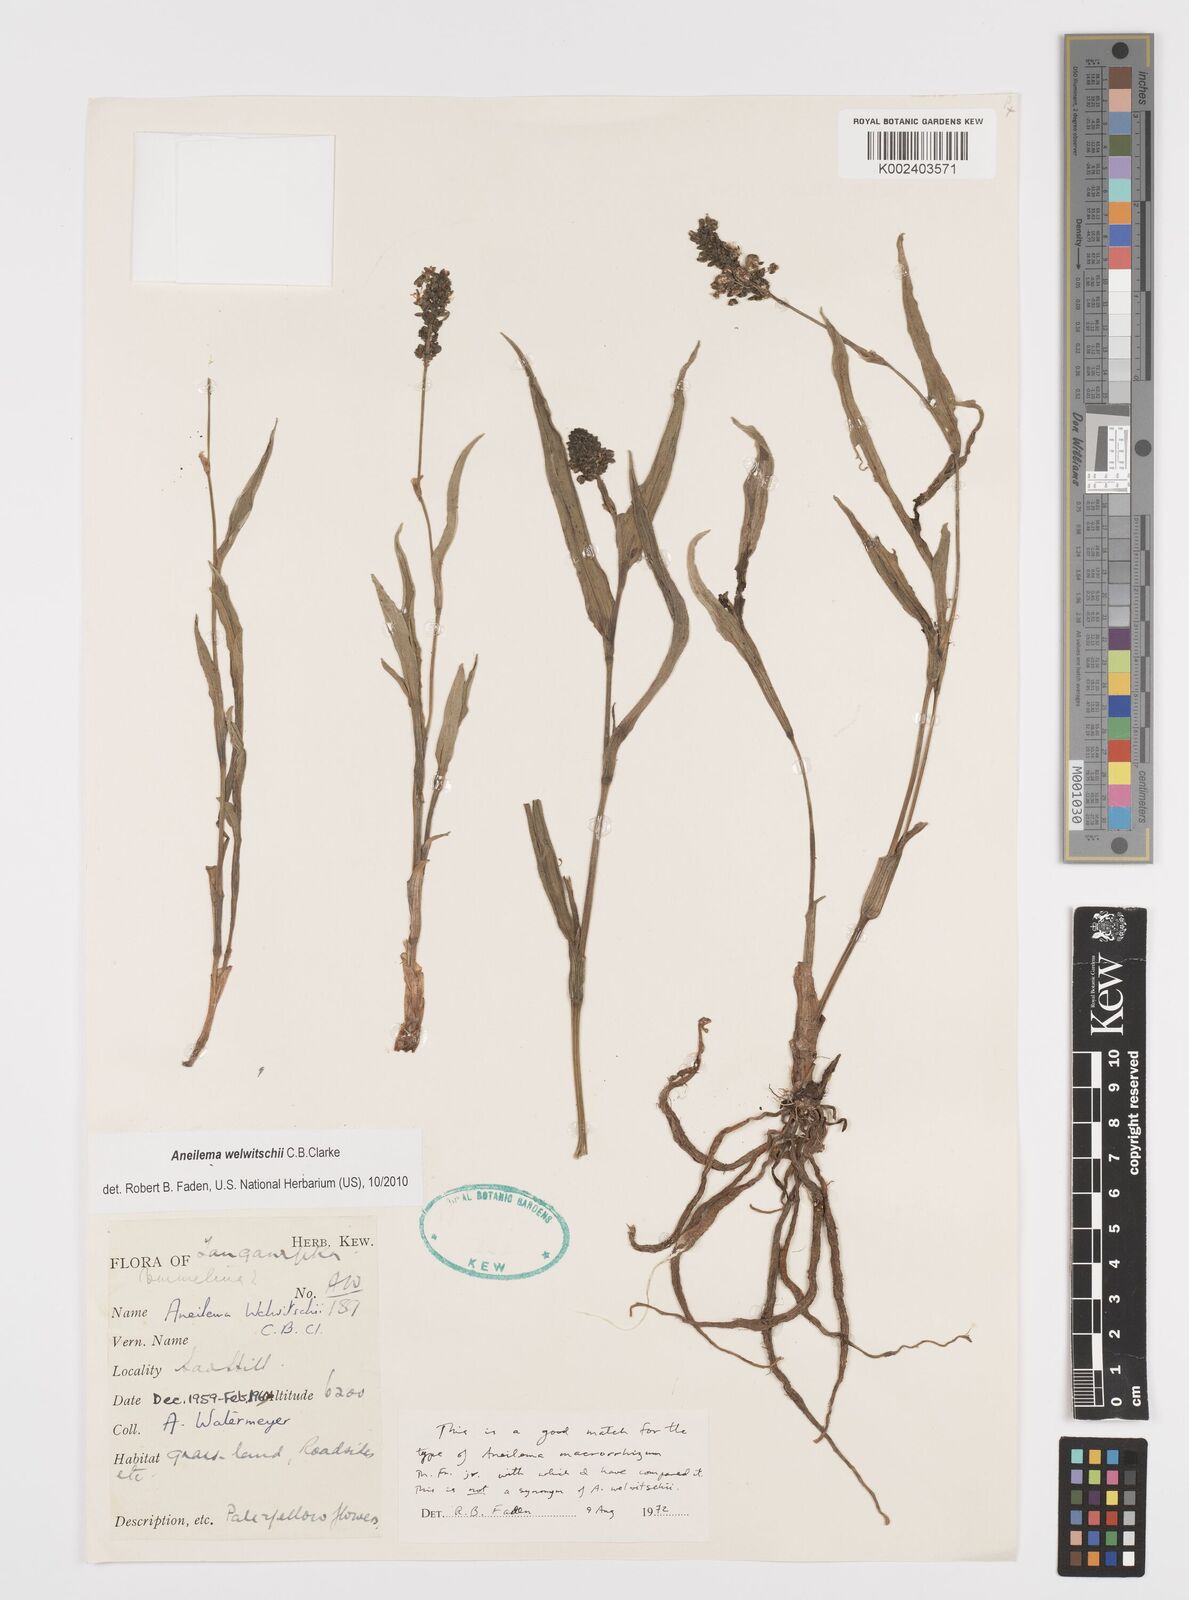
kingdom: Plantae
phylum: Tracheophyta
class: Liliopsida
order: Commelinales
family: Commelinaceae
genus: Aneilema
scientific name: Aneilema welwitschii
